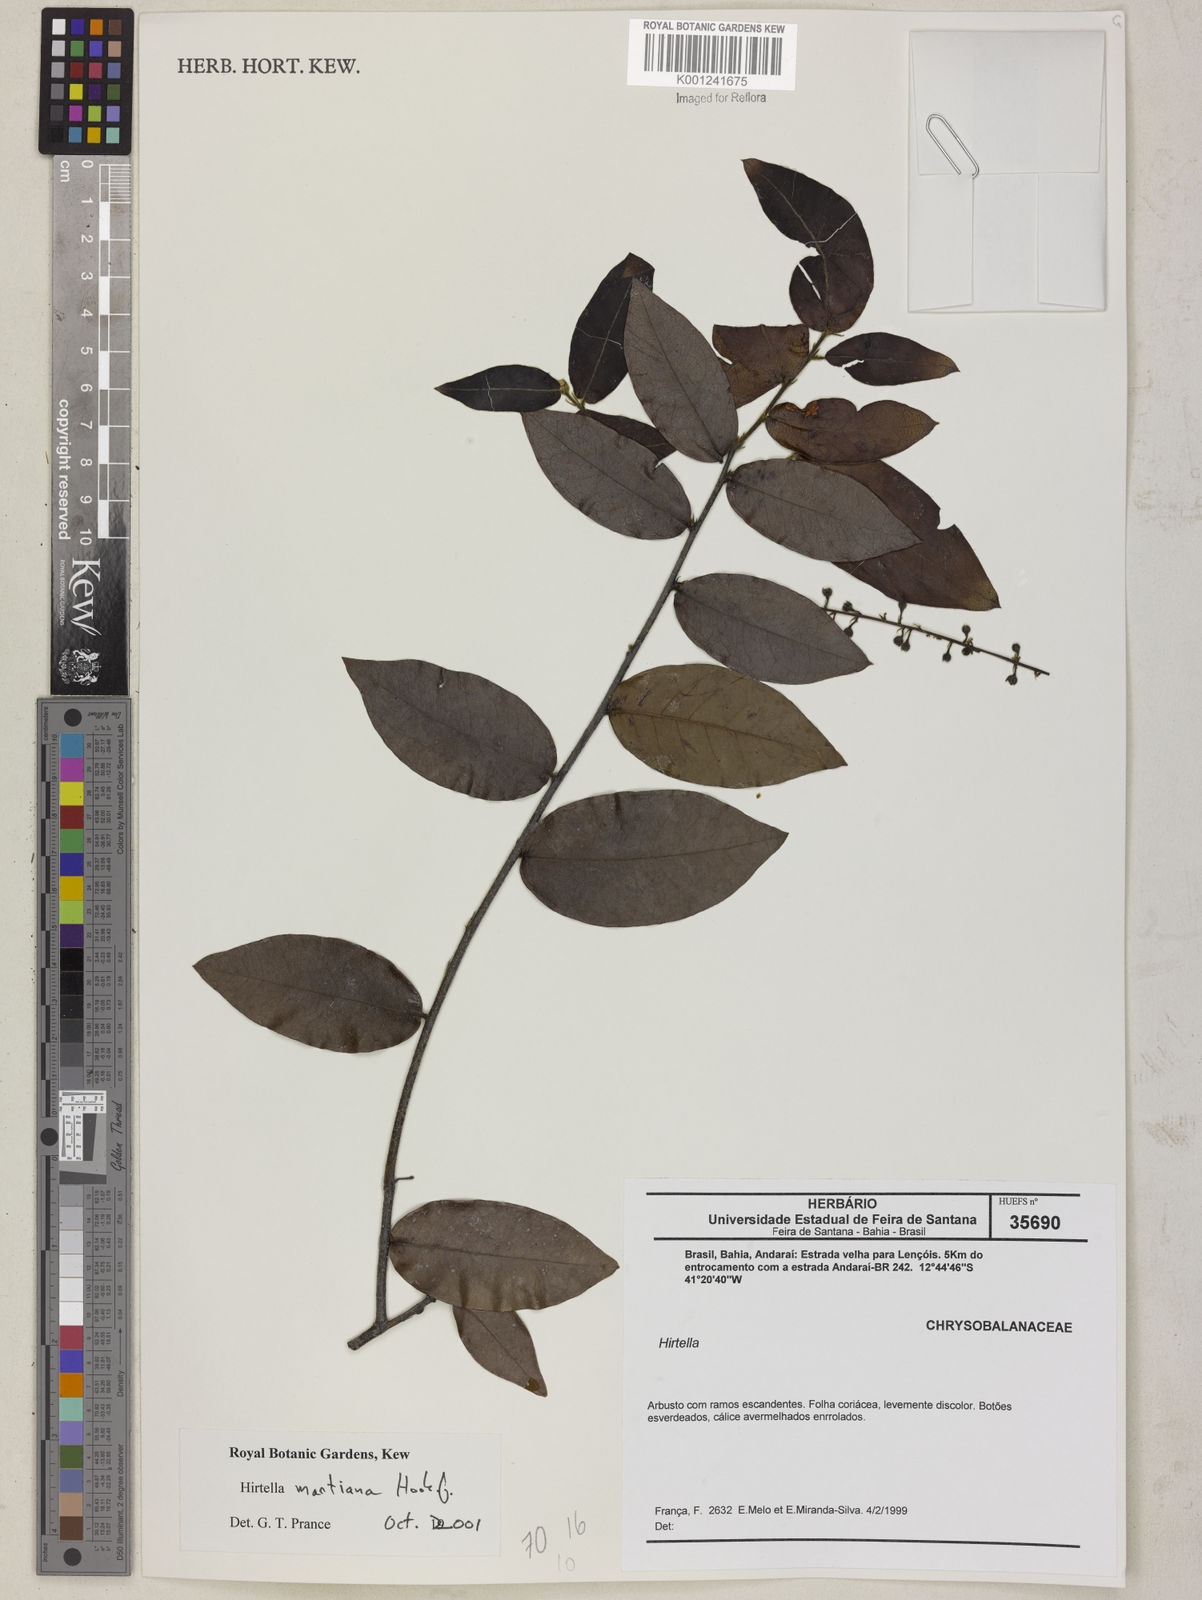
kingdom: Plantae
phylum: Tracheophyta
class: Magnoliopsida
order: Malpighiales
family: Chrysobalanaceae
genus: Hirtella
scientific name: Hirtella martiana
